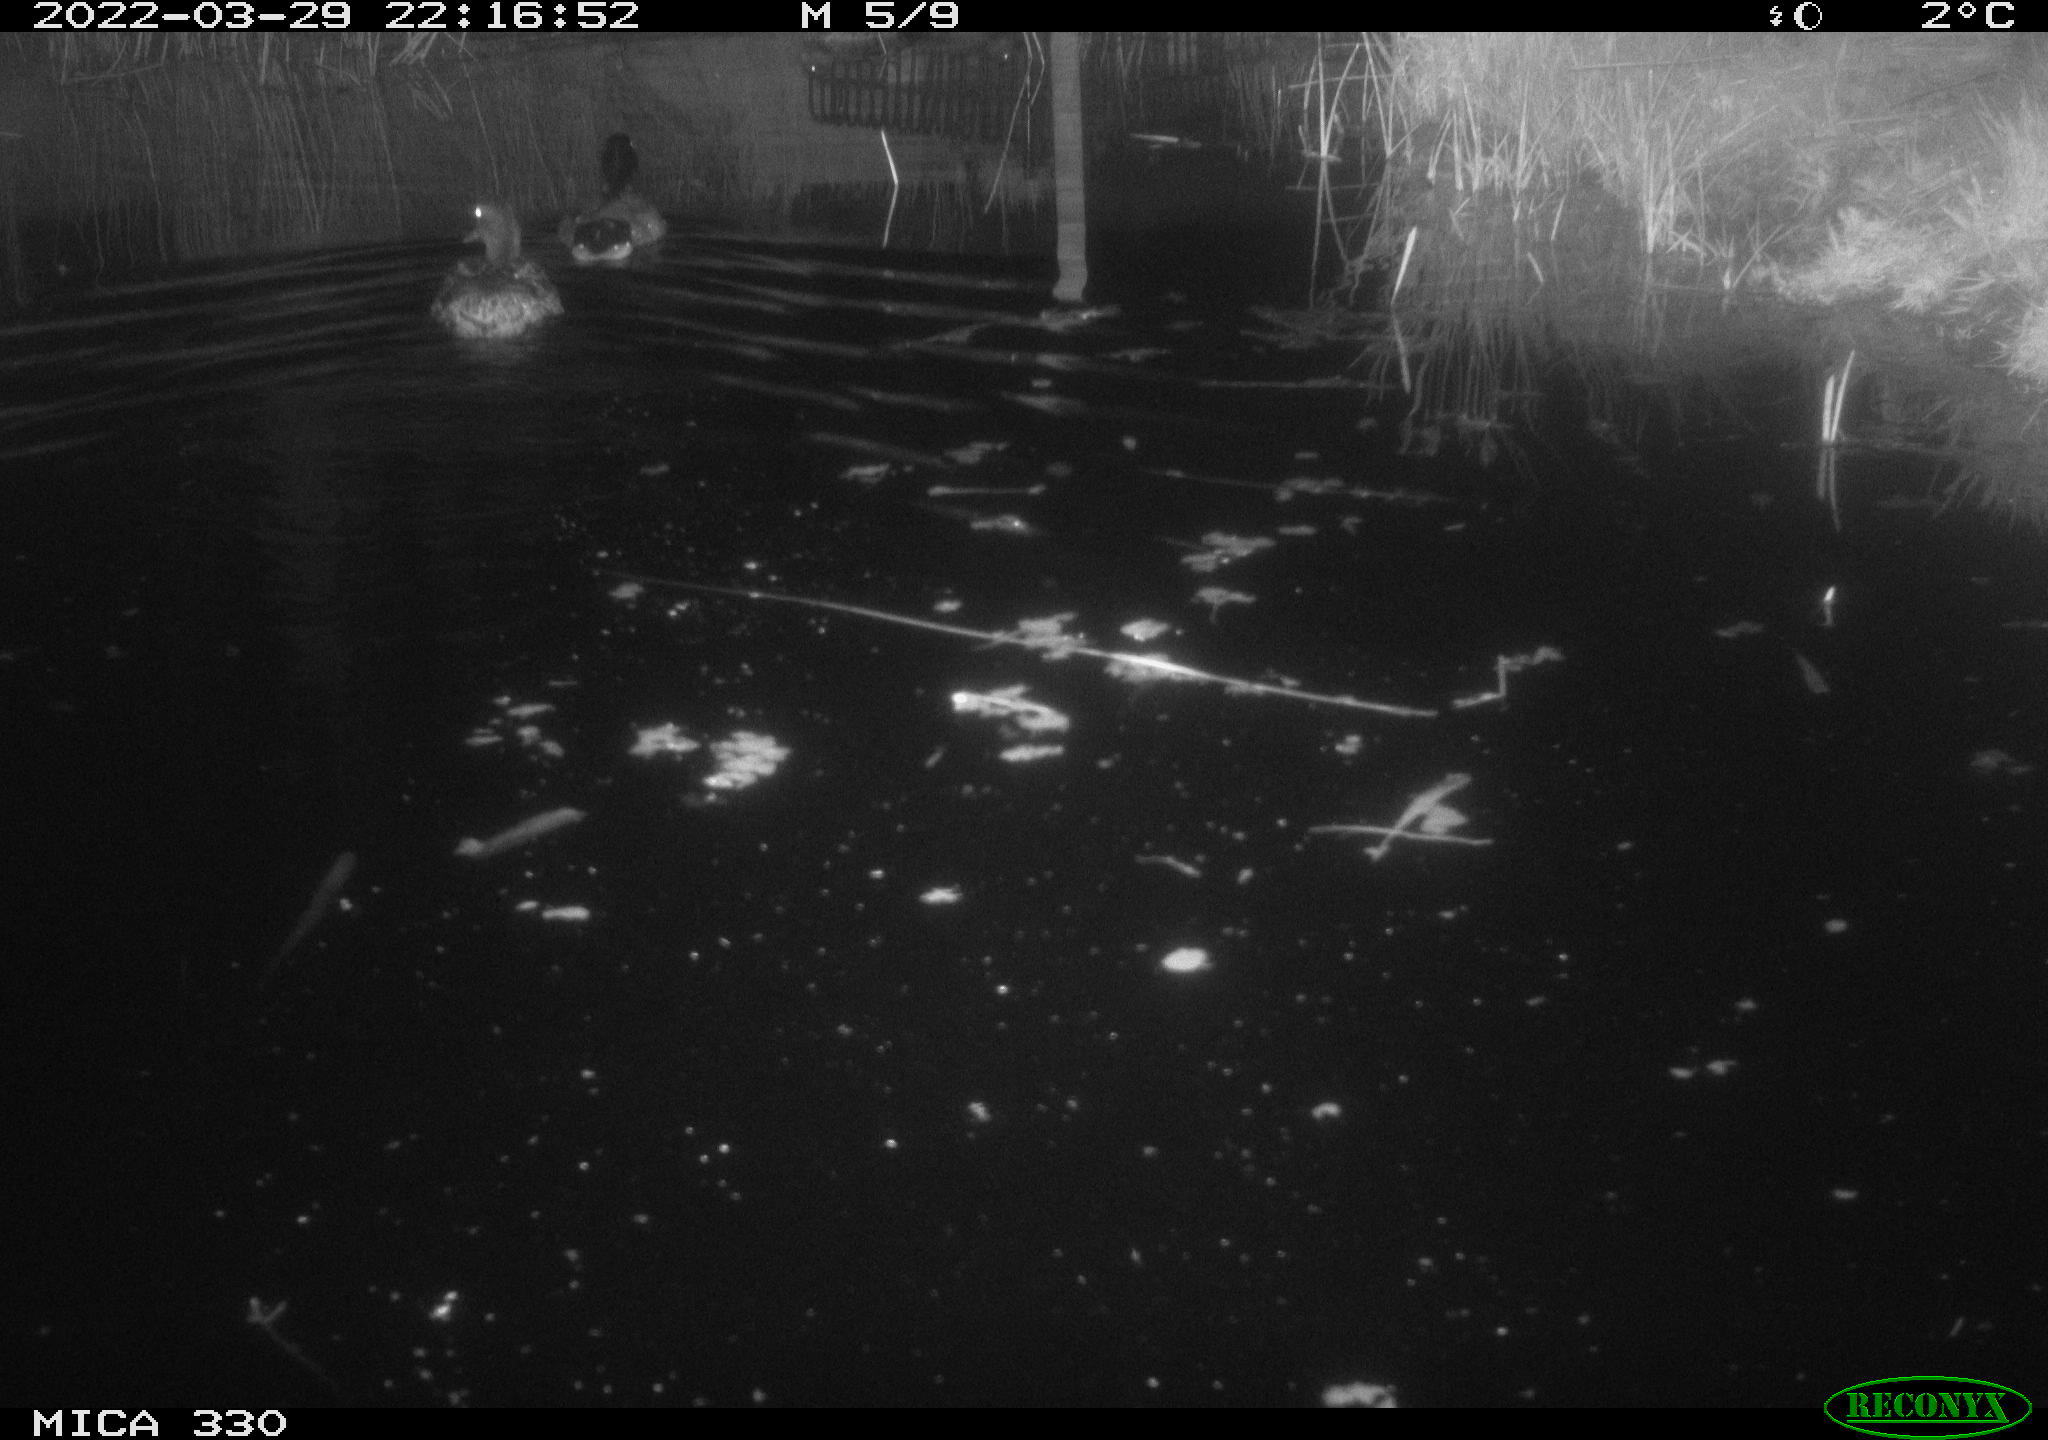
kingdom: Animalia
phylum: Chordata
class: Aves
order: Anseriformes
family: Anatidae
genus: Anas
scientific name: Anas platyrhynchos
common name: Mallard
